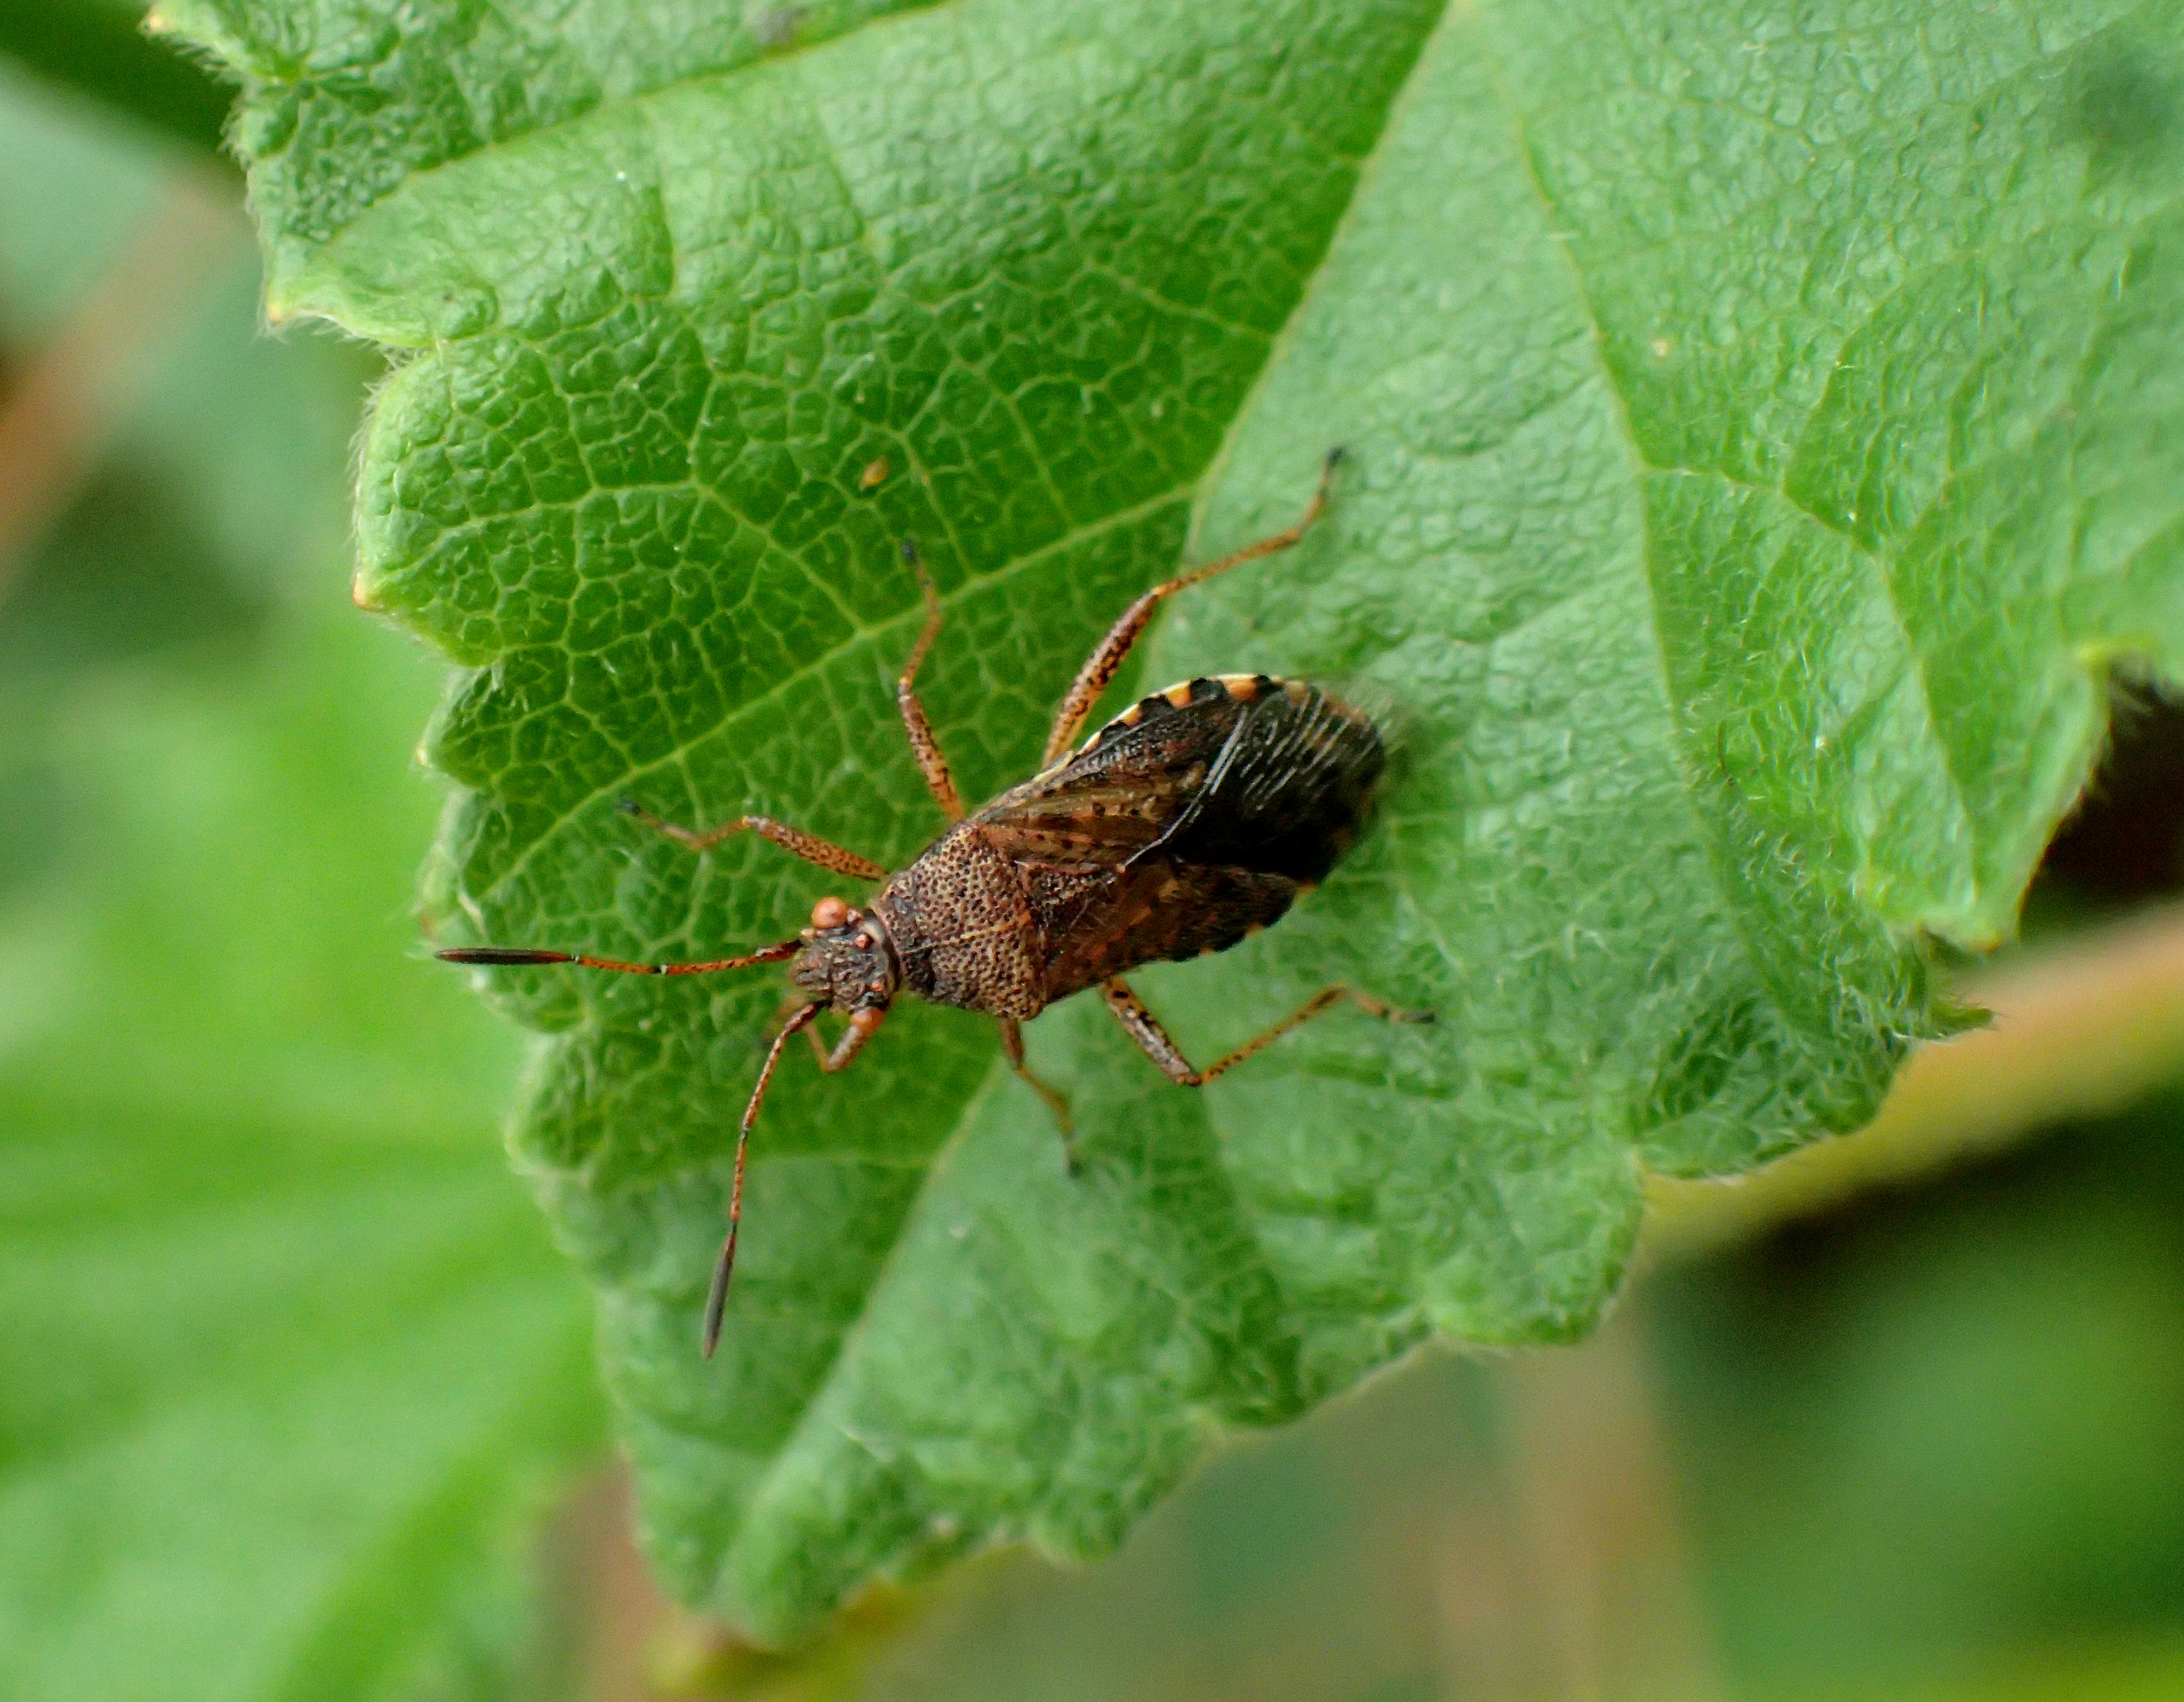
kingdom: Animalia
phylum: Arthropoda
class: Insecta
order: Hemiptera
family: Rhopalidae
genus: Rhopalus
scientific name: Rhopalus subrufus
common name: Skovkanttæge
